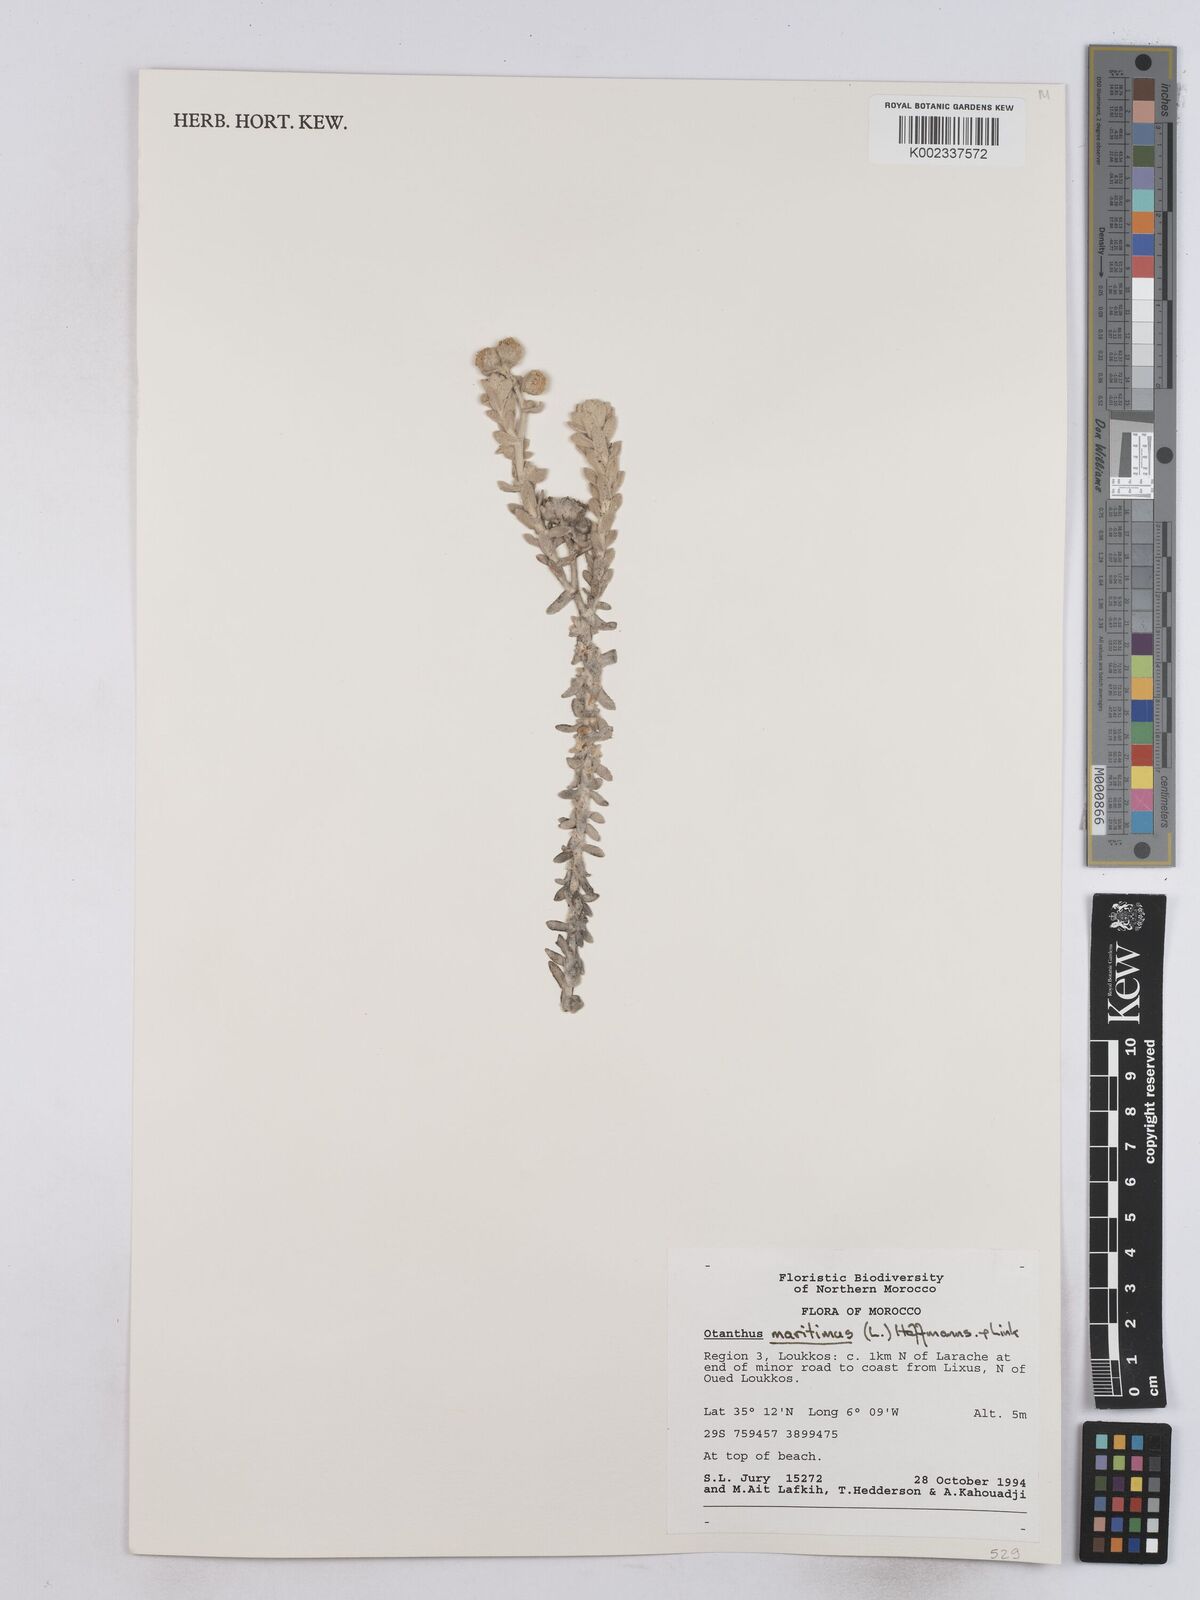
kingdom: Plantae
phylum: Tracheophyta
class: Magnoliopsida
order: Asterales
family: Asteraceae
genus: Achillea
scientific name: Achillea maritima
